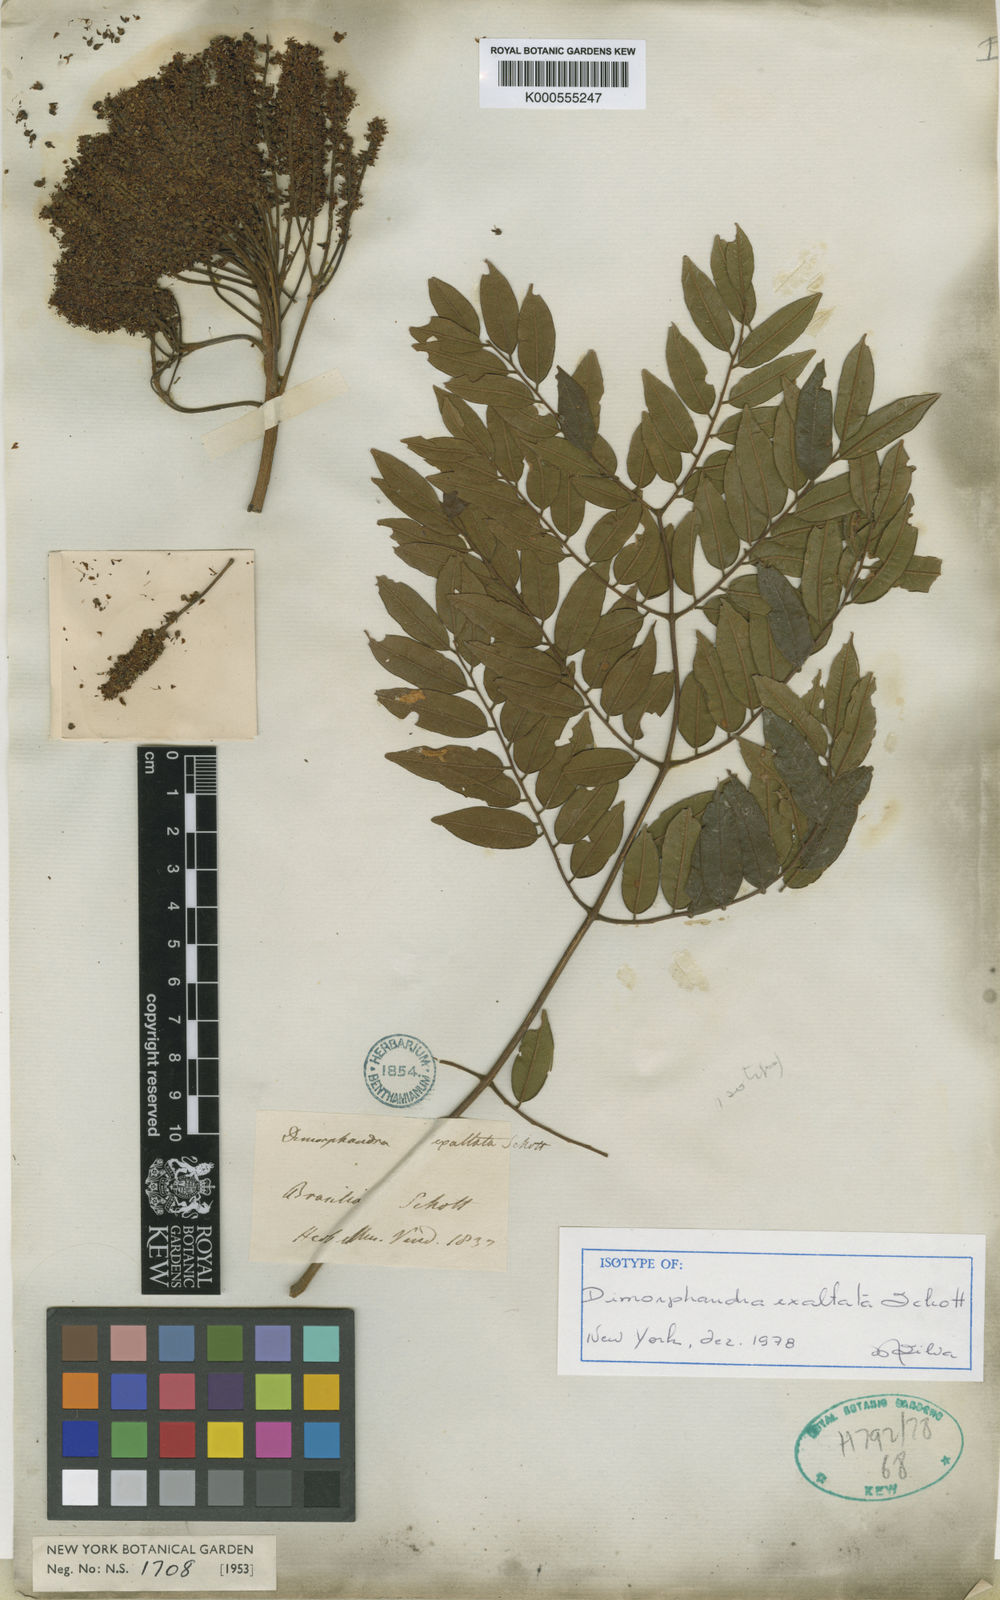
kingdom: Plantae
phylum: Tracheophyta
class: Magnoliopsida
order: Fabales
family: Fabaceae
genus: Dimorphandra
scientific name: Dimorphandra exaltata
